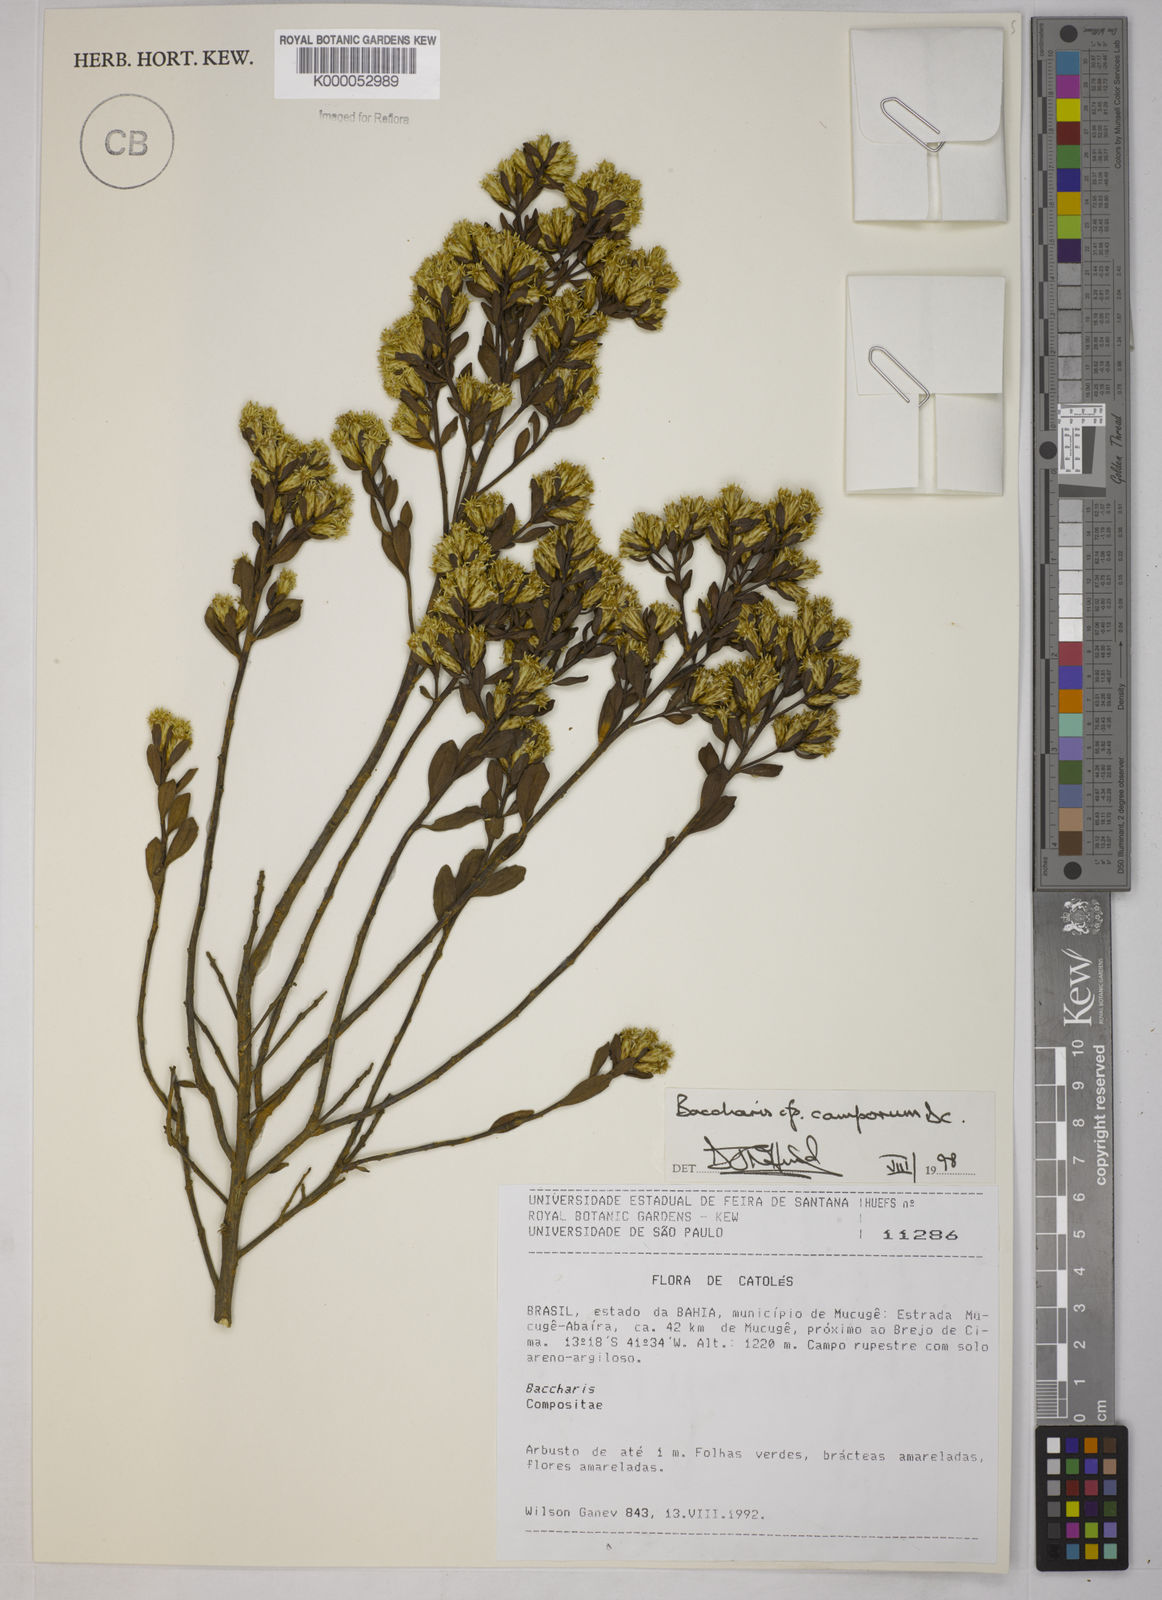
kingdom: Plantae
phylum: Tracheophyta
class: Magnoliopsida
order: Asterales
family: Asteraceae
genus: Baccharis
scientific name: Baccharis camporum
